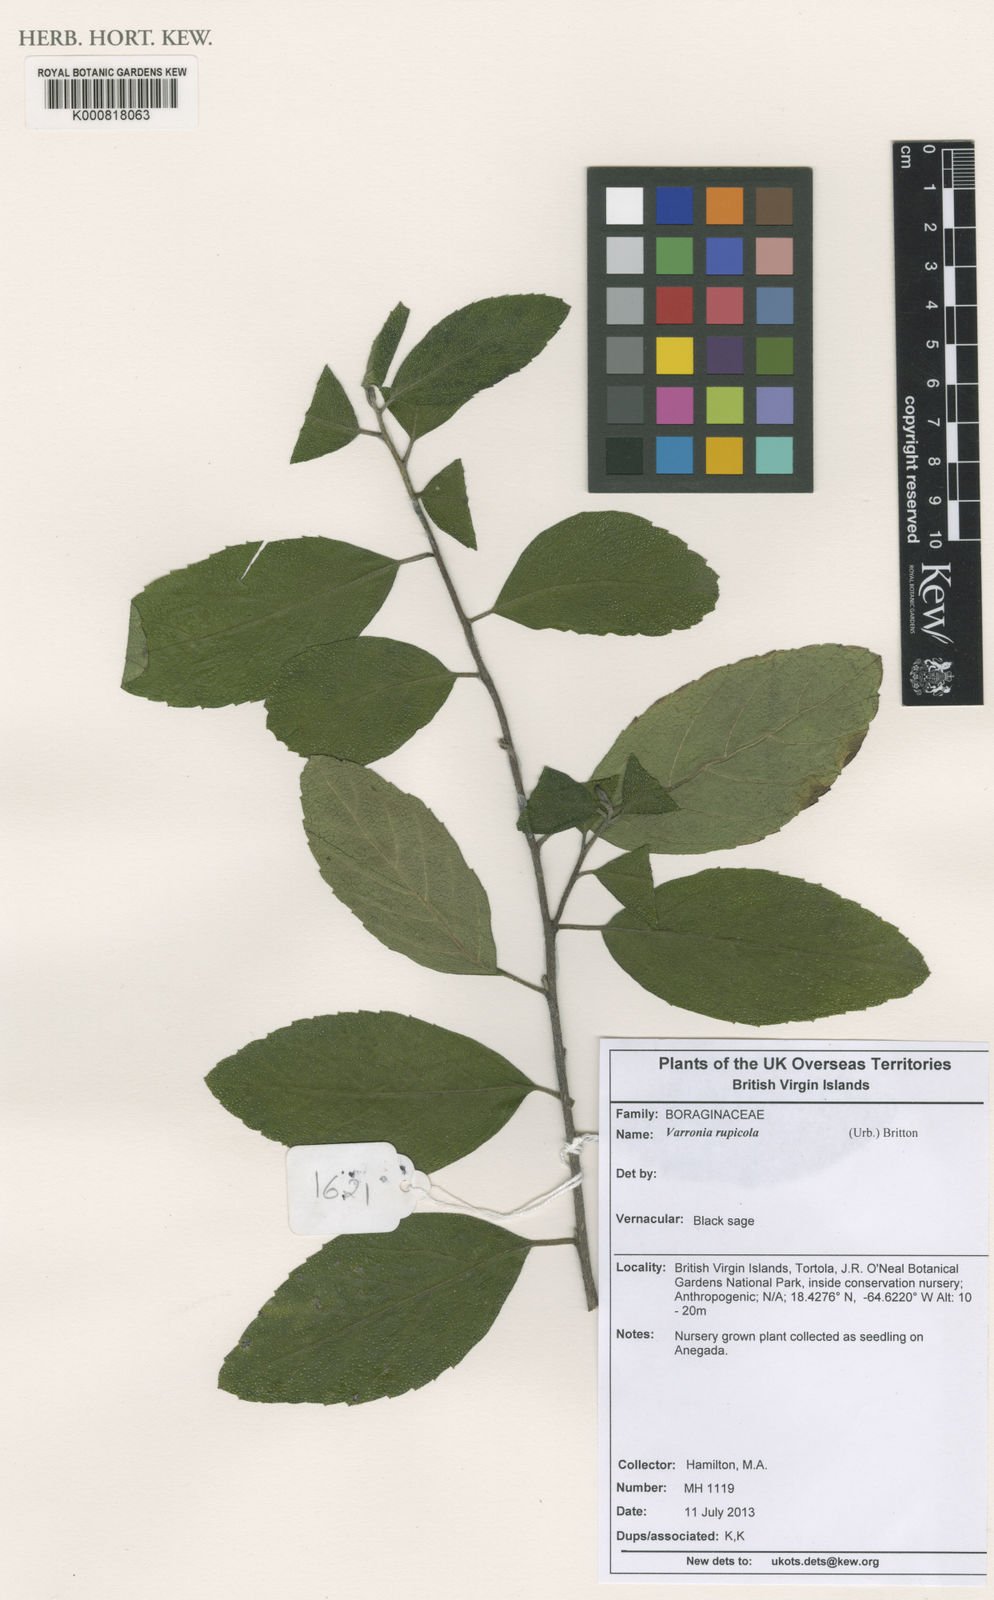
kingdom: Plantae
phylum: Tracheophyta
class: Magnoliopsida
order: Boraginales
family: Cordiaceae
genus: Varronia
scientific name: Varronia rupicola
